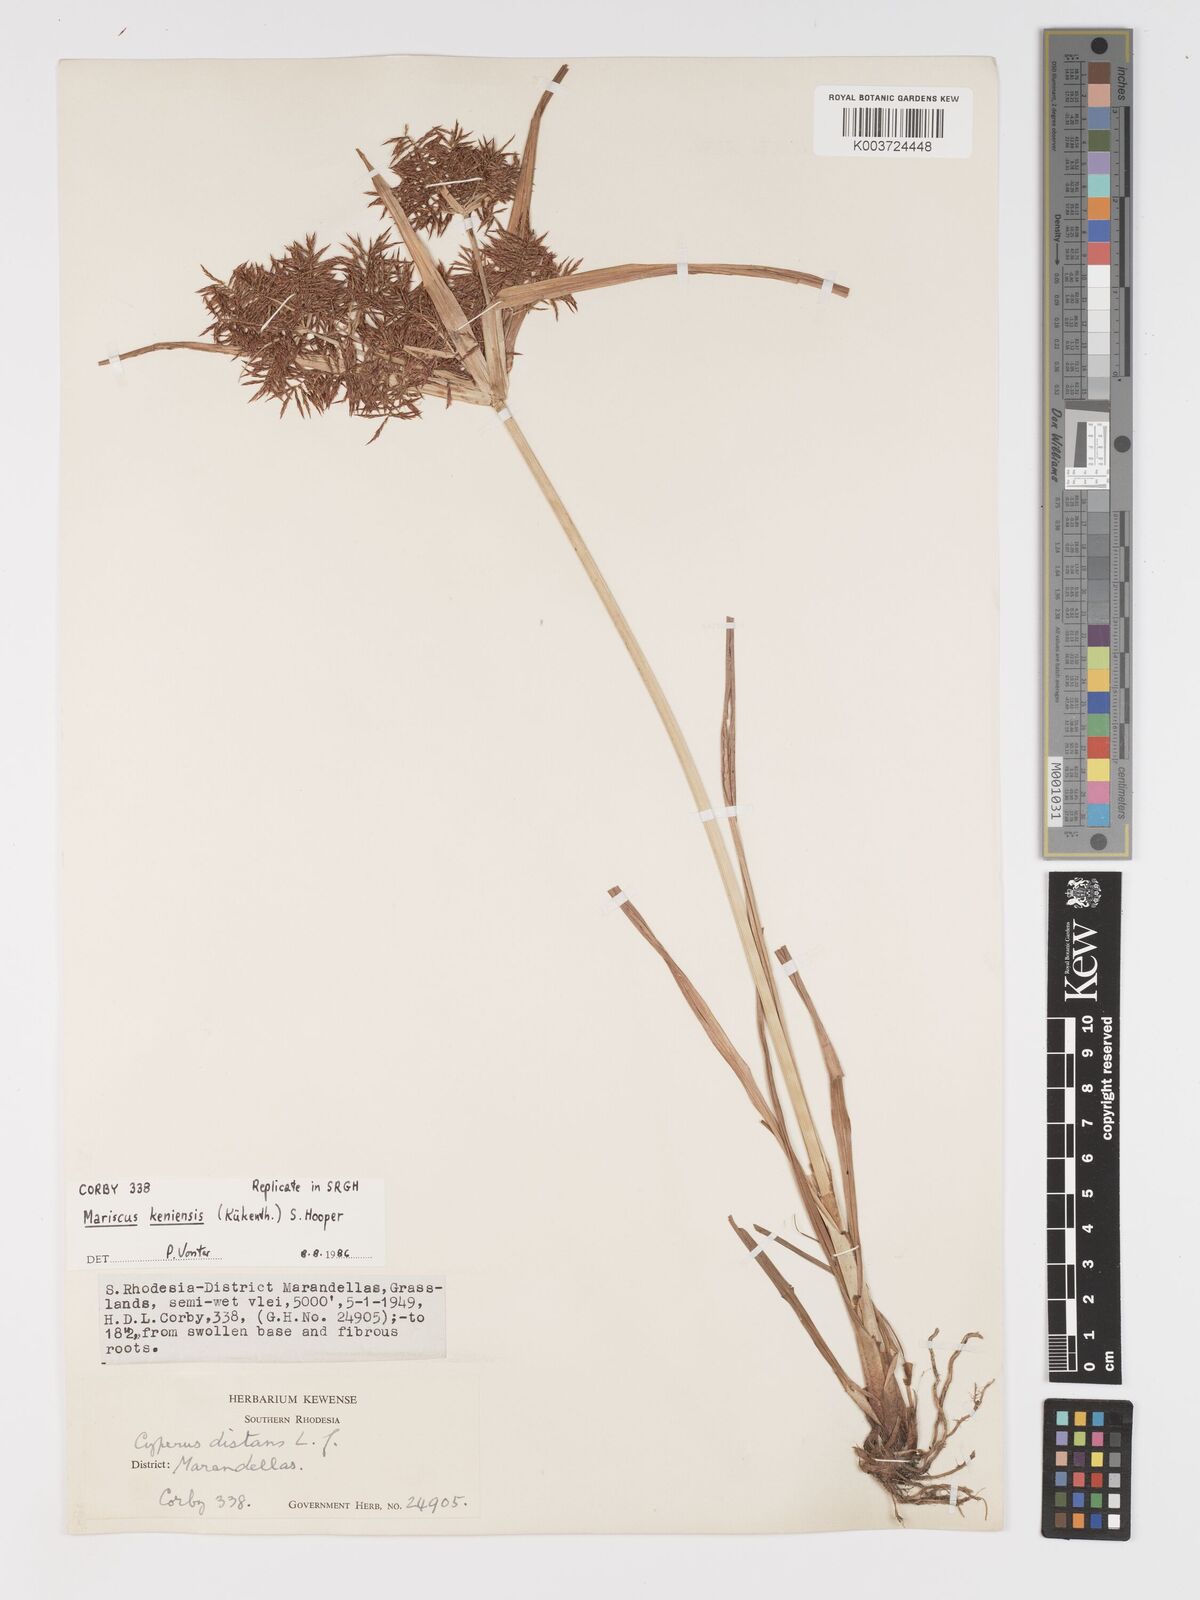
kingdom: Plantae
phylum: Tracheophyta
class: Liliopsida
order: Poales
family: Cyperaceae
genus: Cyperus
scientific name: Cyperus
